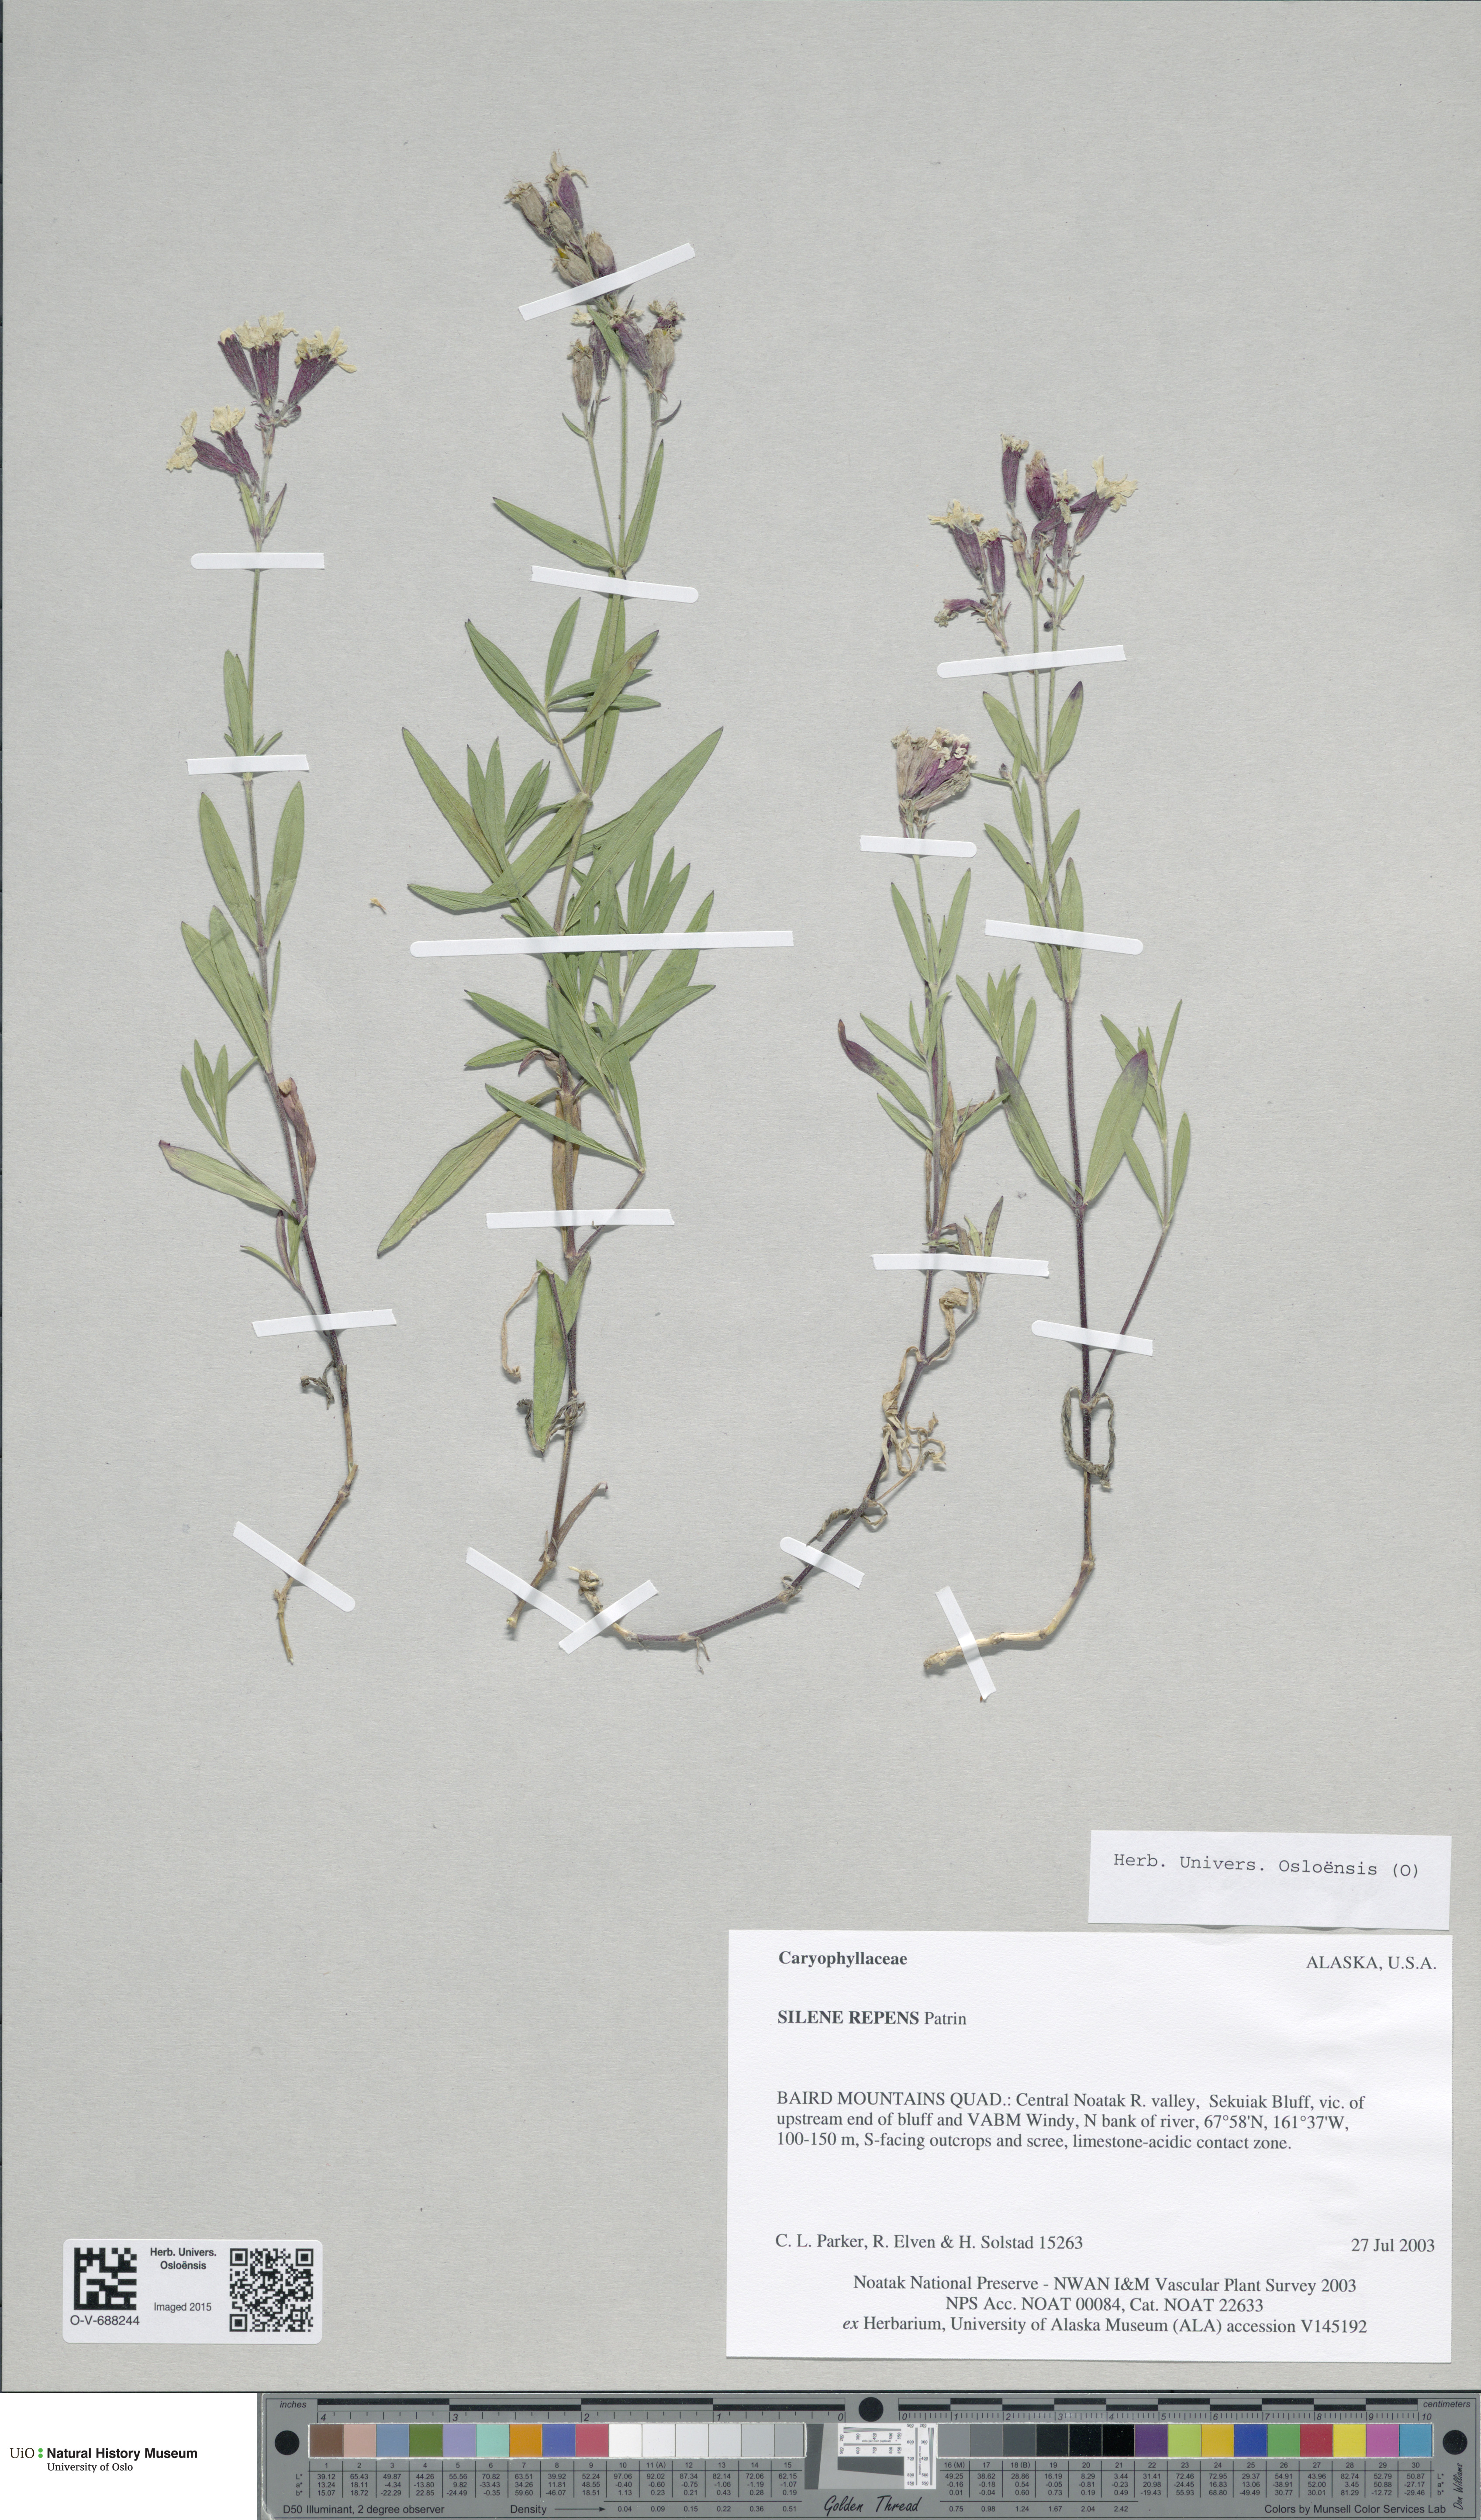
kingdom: Plantae
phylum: Tracheophyta
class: Magnoliopsida
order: Caryophyllales
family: Caryophyllaceae
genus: Silene
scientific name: Silene repens
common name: Pink campion
